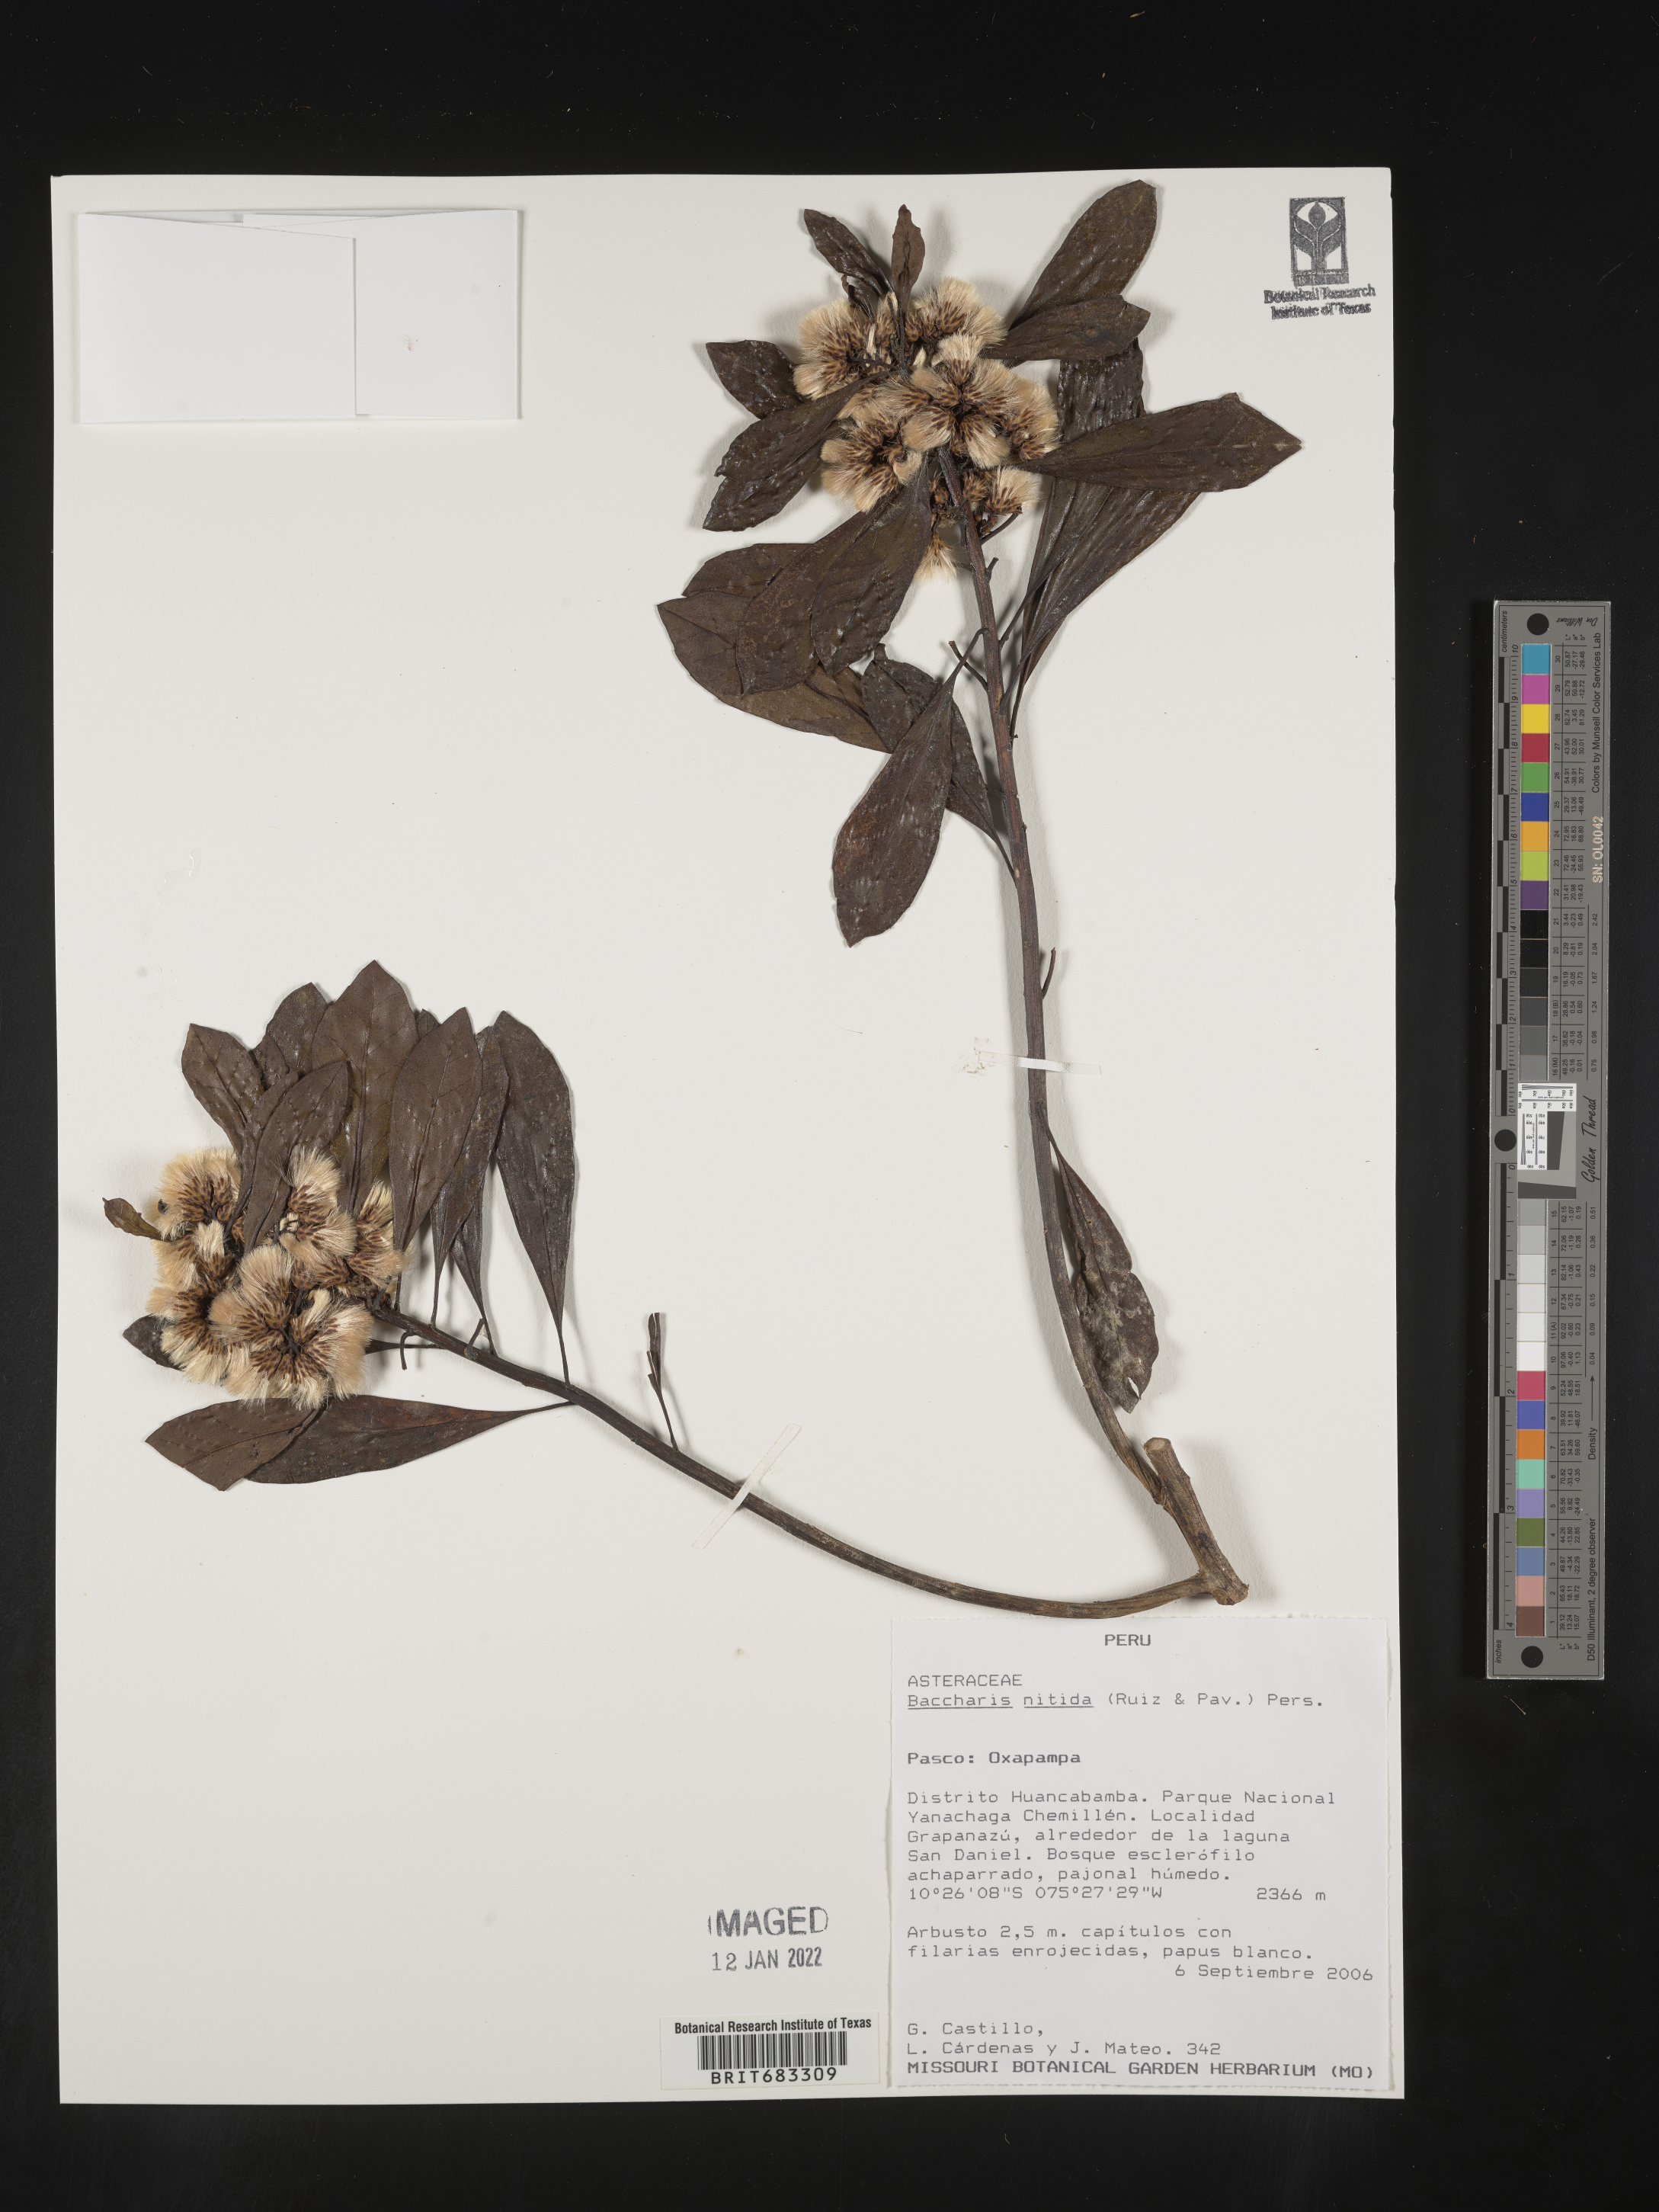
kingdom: Plantae
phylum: Tracheophyta
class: Magnoliopsida
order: Asterales
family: Asteraceae
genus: Baccharis
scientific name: Baccharis
